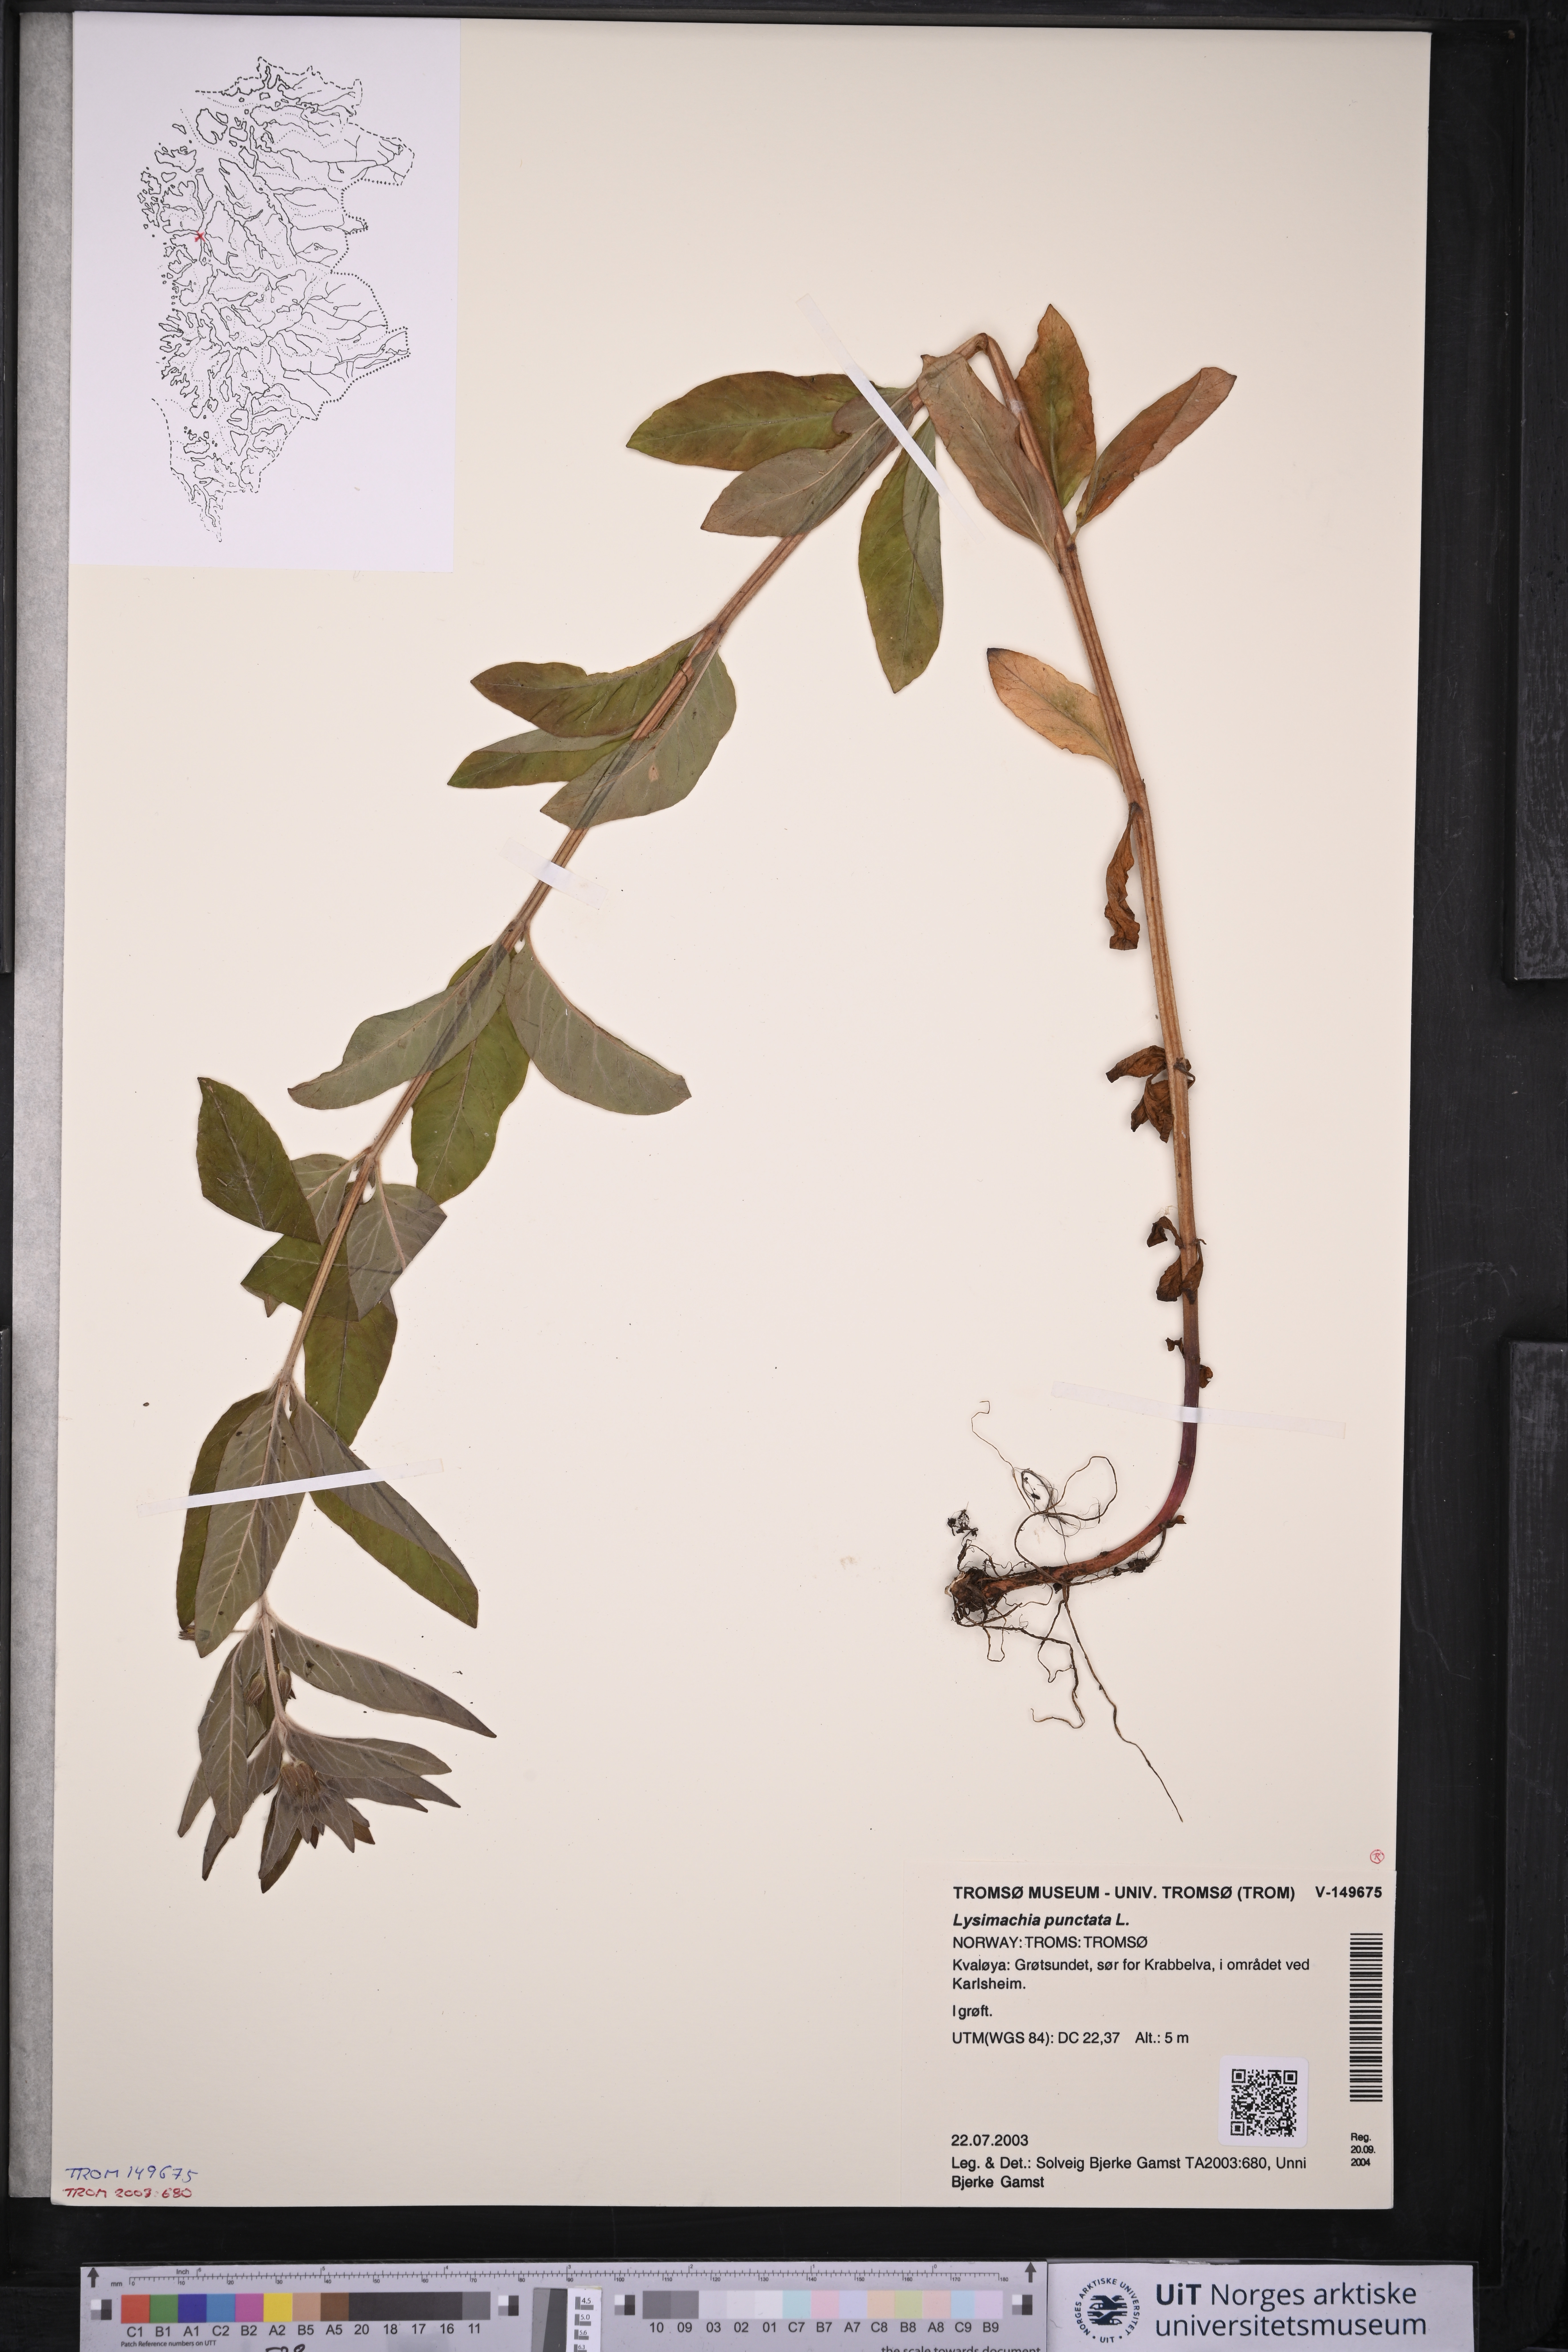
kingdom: Plantae
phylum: Tracheophyta
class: Magnoliopsida
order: Ericales
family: Primulaceae
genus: Lysimachia
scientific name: Lysimachia punctata
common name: Dotted loosestrife
